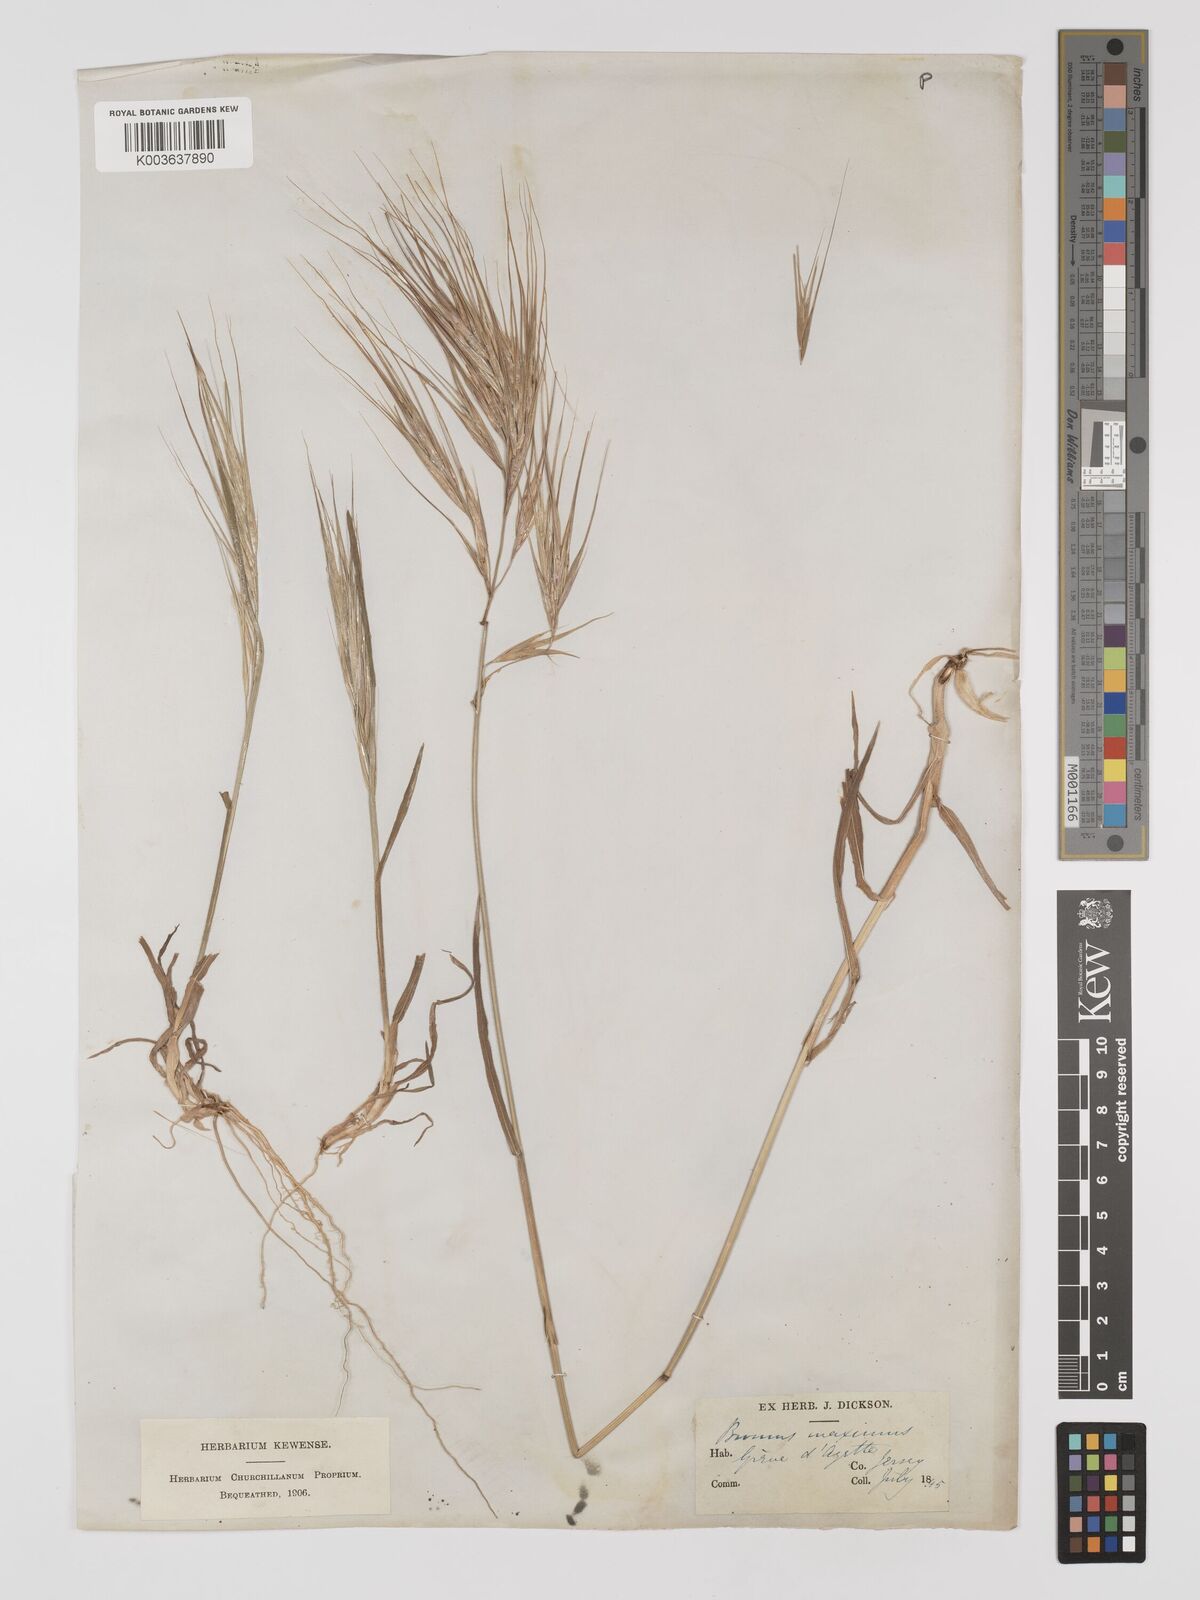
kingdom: Plantae
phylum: Tracheophyta
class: Liliopsida
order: Poales
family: Poaceae
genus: Bromus
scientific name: Bromus
